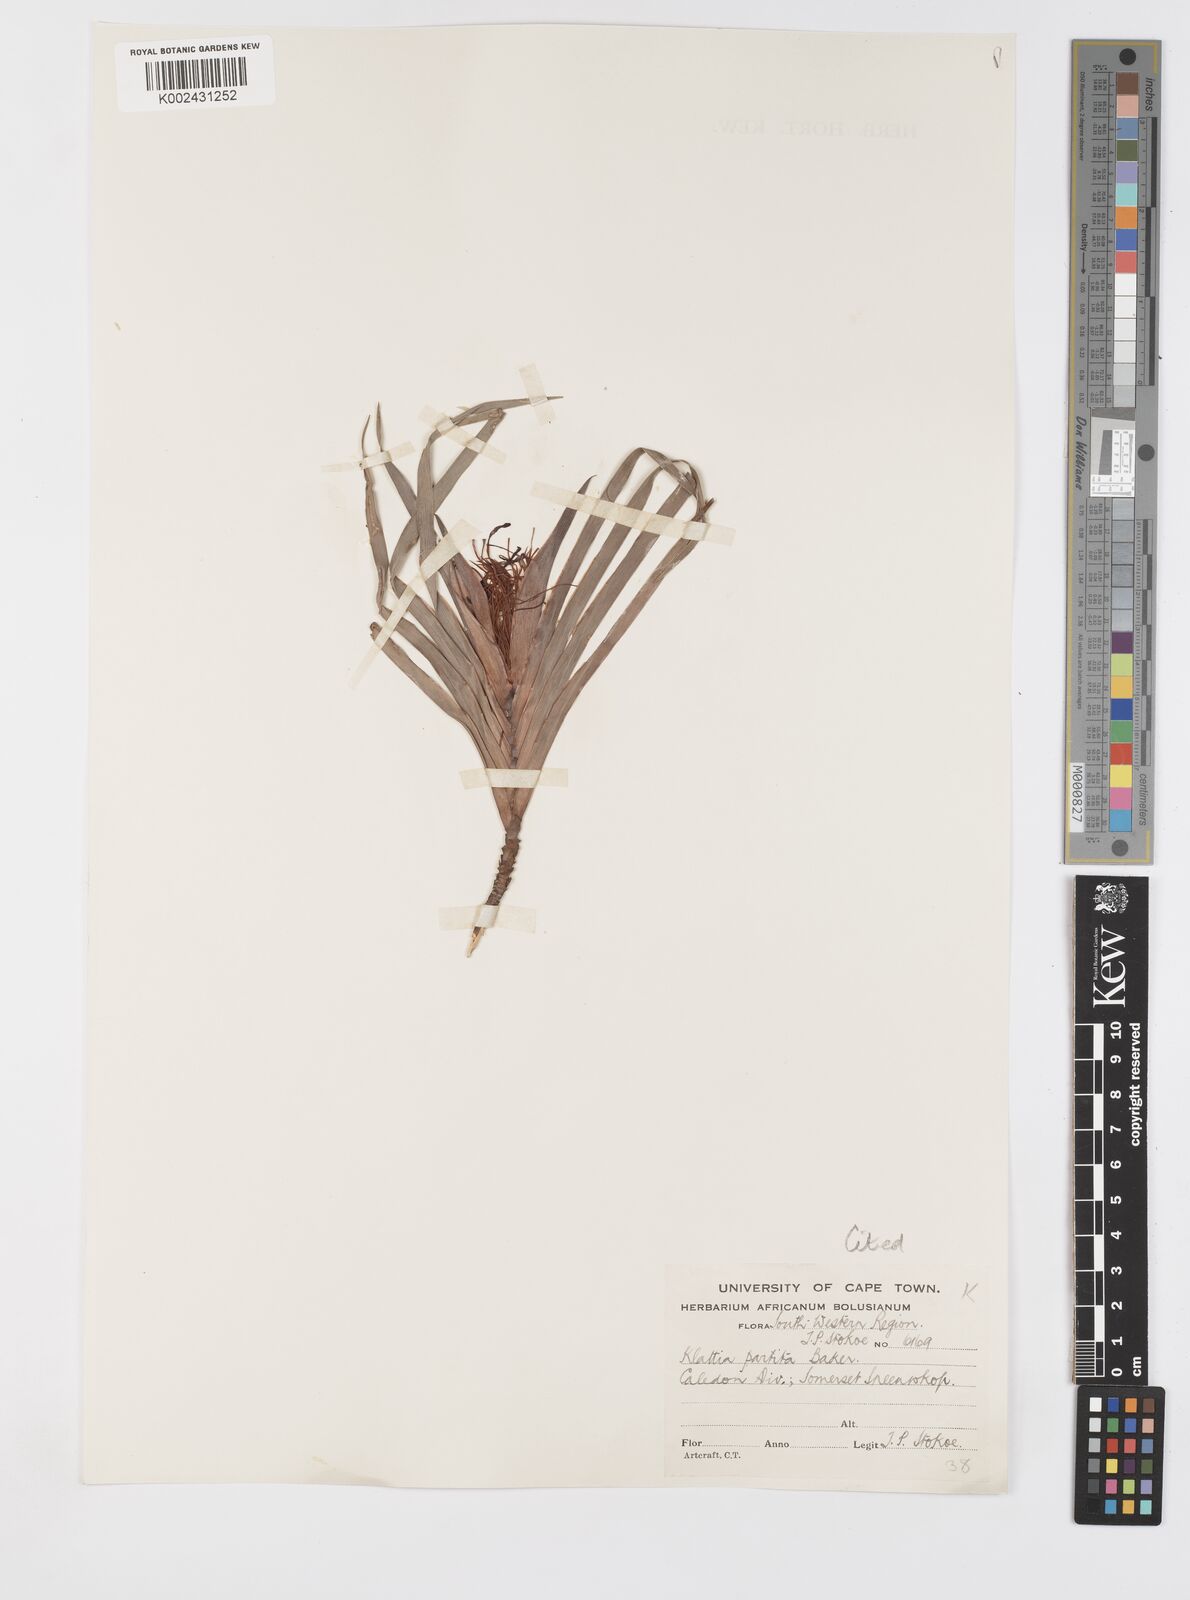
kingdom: Plantae
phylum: Tracheophyta
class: Liliopsida
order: Asparagales
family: Iridaceae
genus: Klattia
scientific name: Klattia flava
